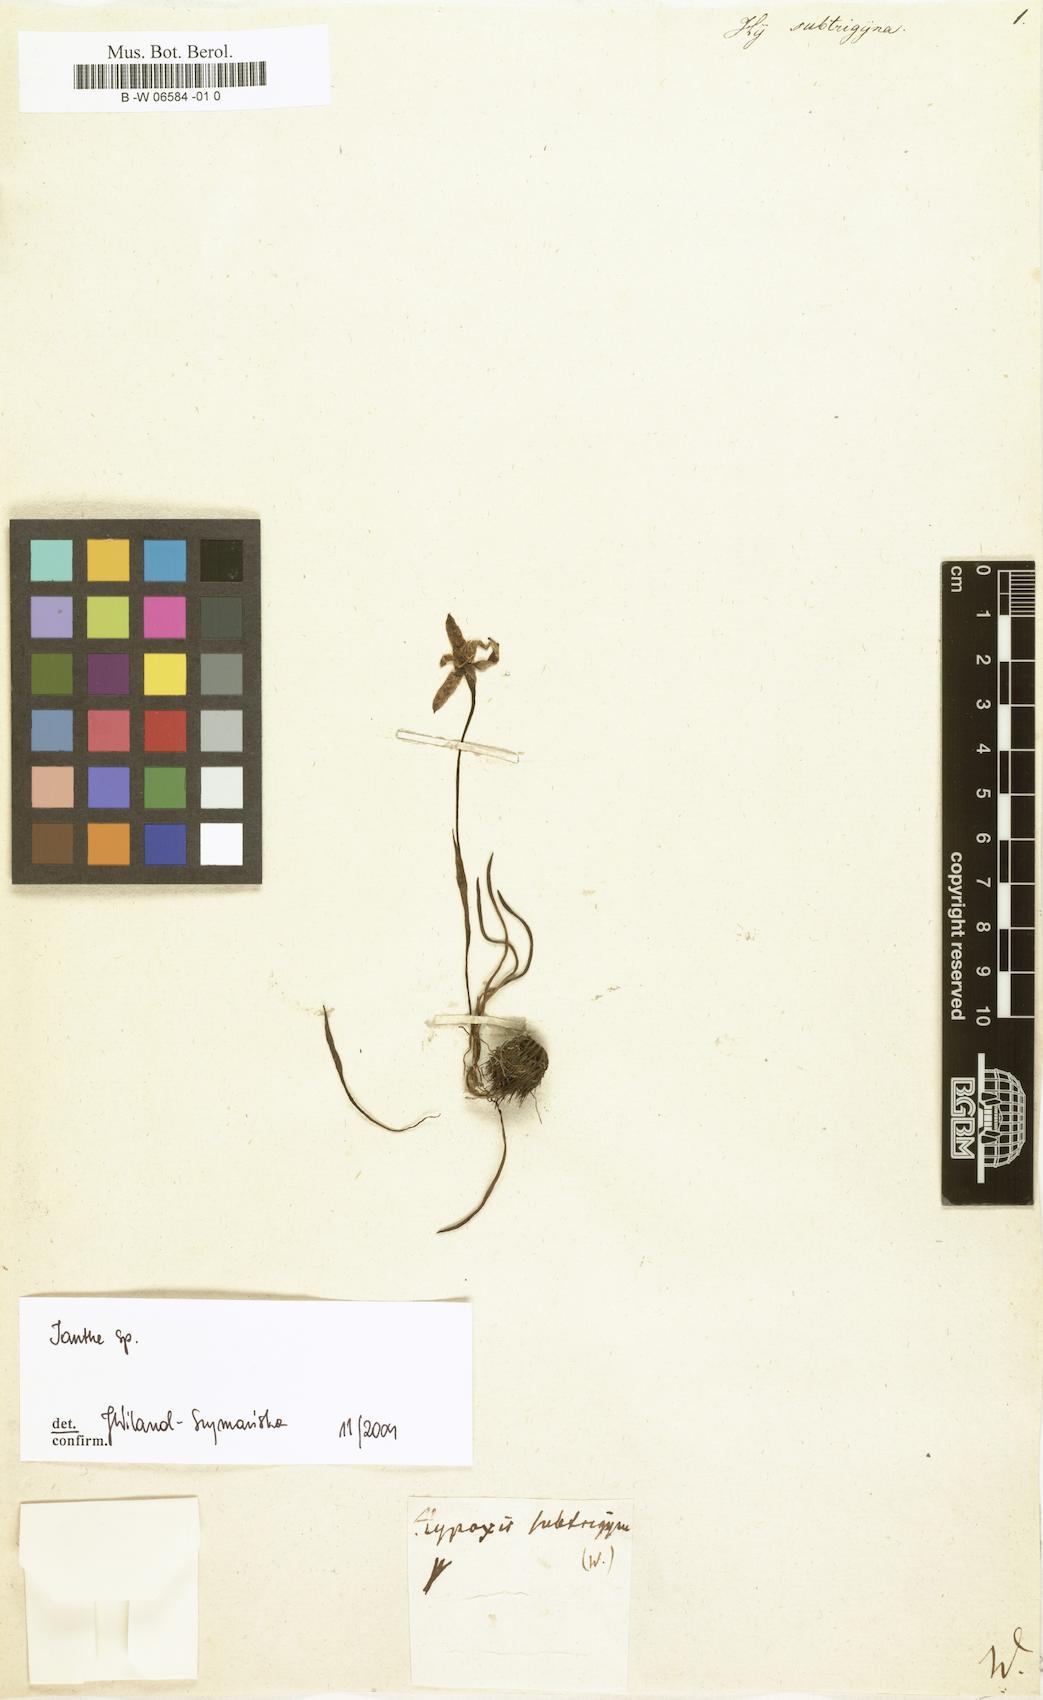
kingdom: Plantae
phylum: Tracheophyta
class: Liliopsida
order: Asparagales
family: Hypoxidaceae
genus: Hypoxis
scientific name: Hypoxis subtrigyna
